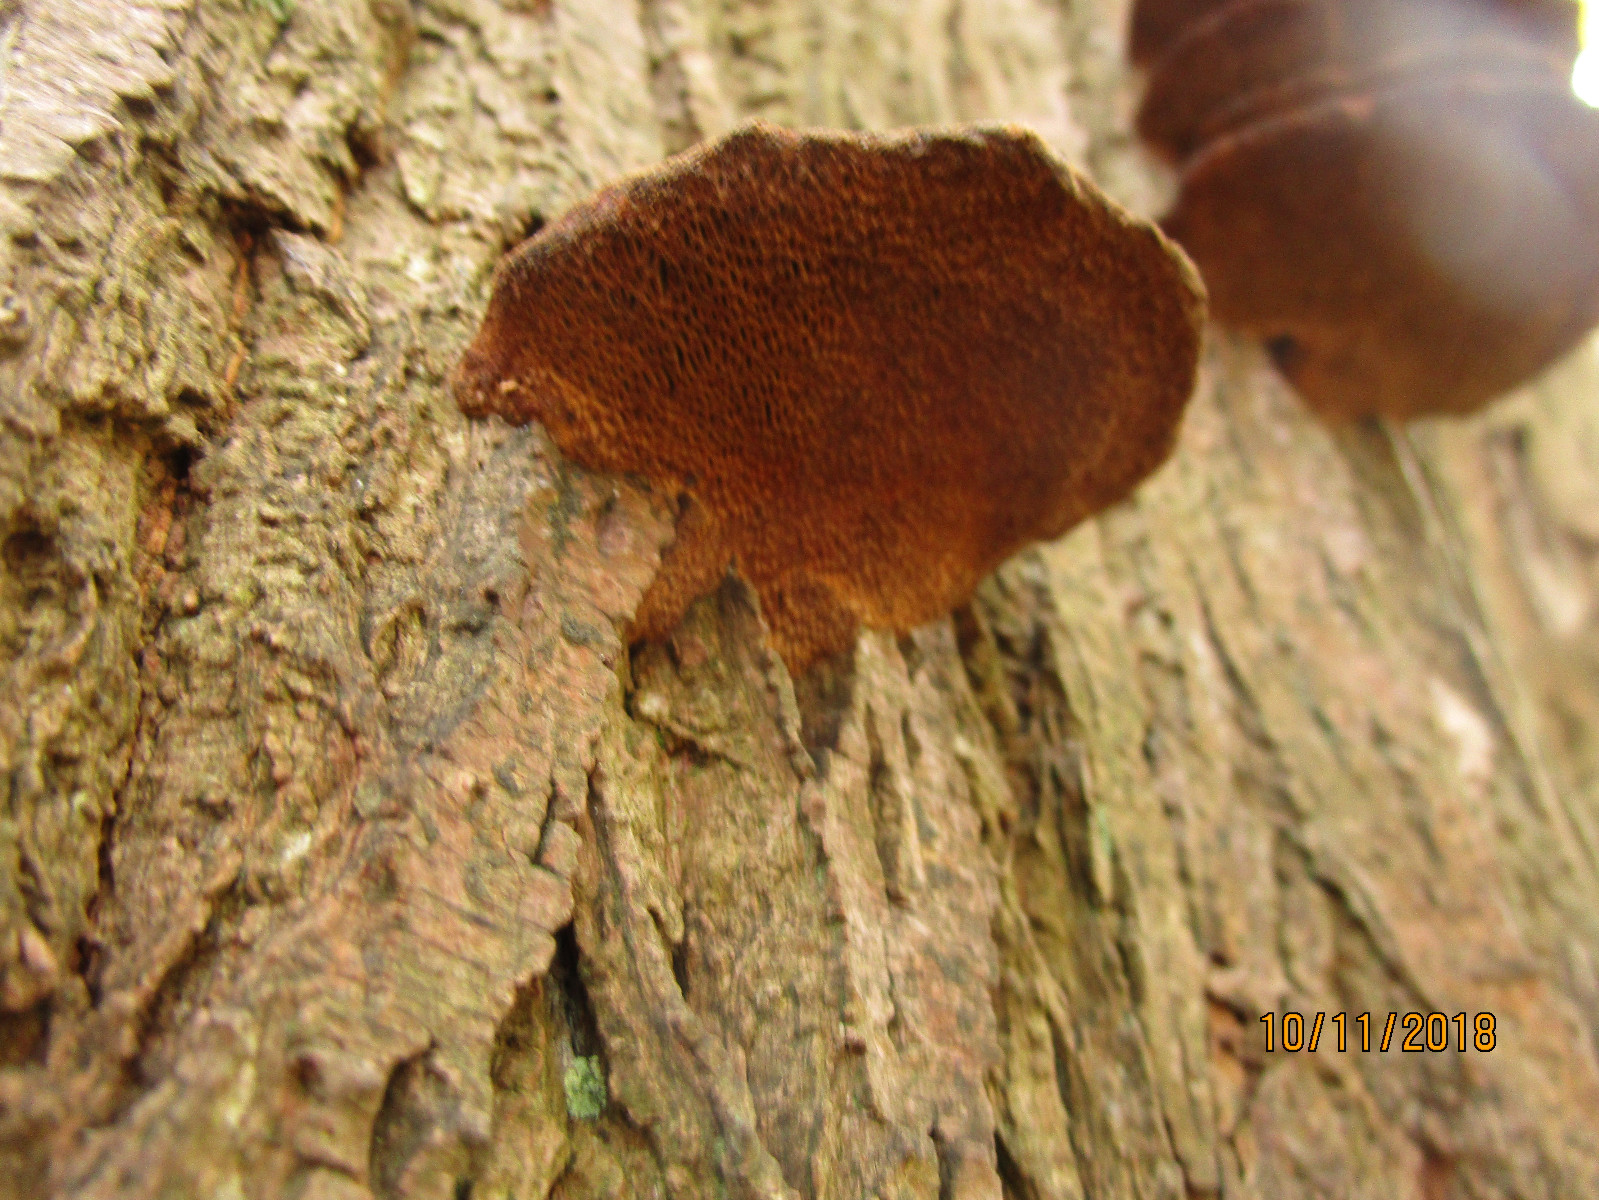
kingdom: Fungi
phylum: Basidiomycota
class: Agaricomycetes
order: Polyporales
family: Polyporaceae
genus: Daedaleopsis
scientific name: Daedaleopsis confragosa
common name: rødmende læderporesvamp
